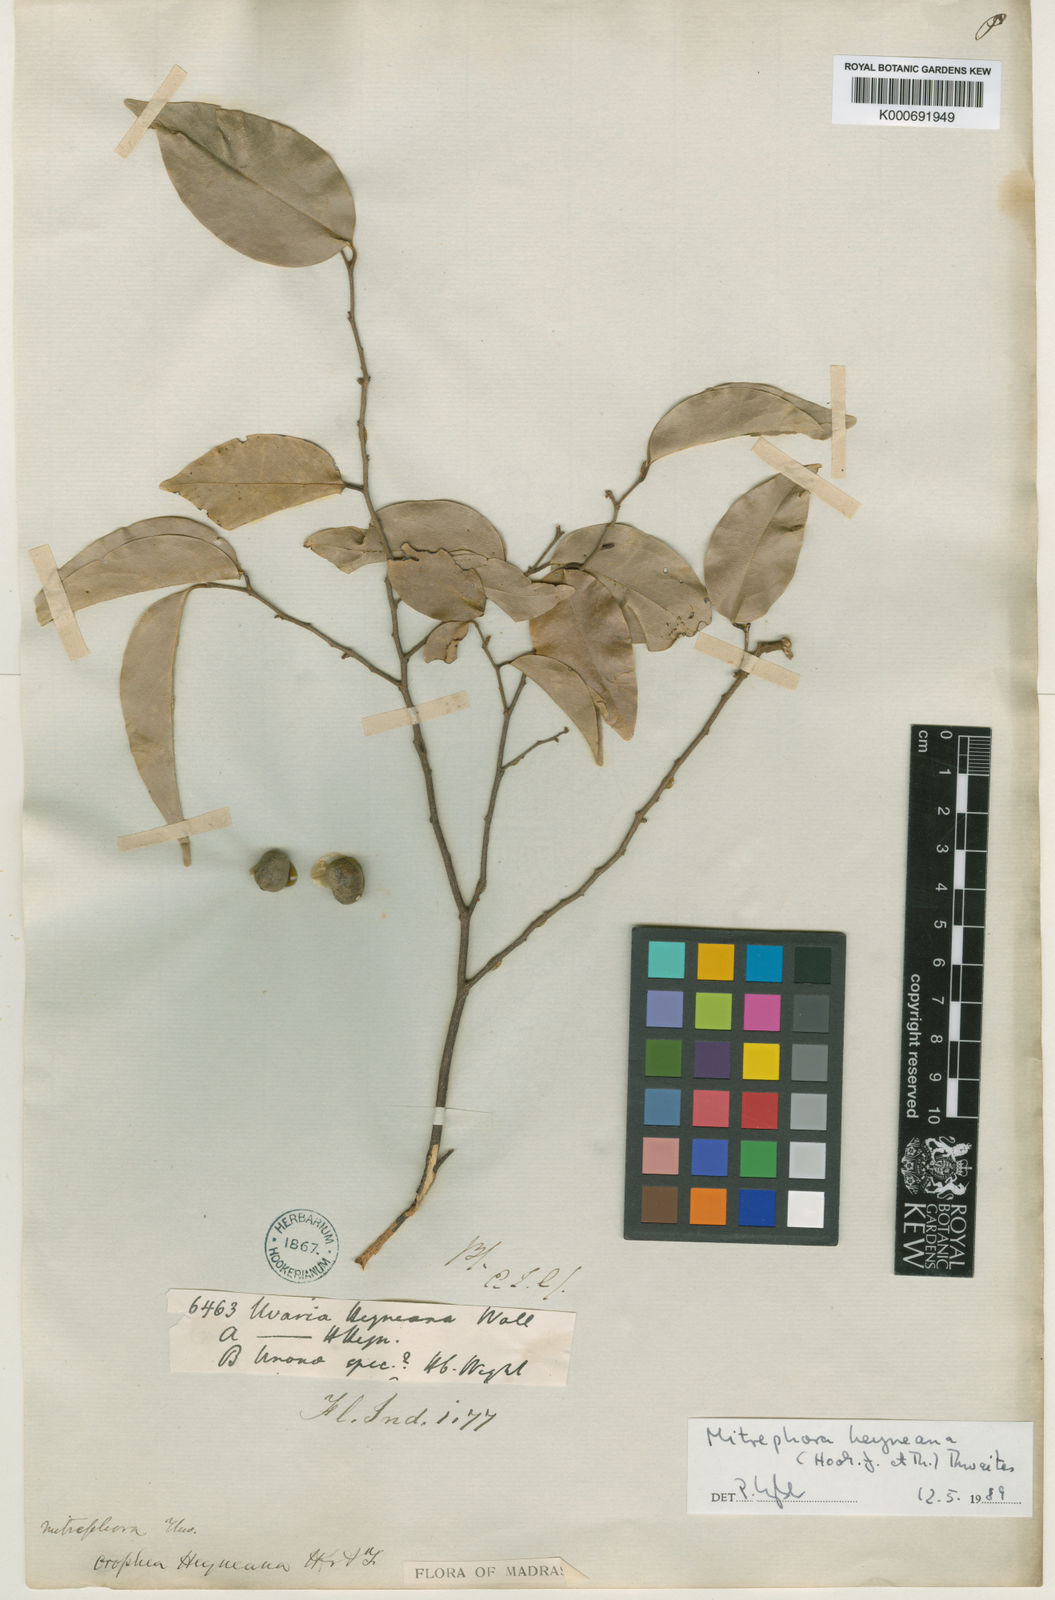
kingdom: Plantae
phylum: Tracheophyta
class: Magnoliopsida
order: Magnoliales
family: Annonaceae
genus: Mitrephora
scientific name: Mitrephora heyneana
